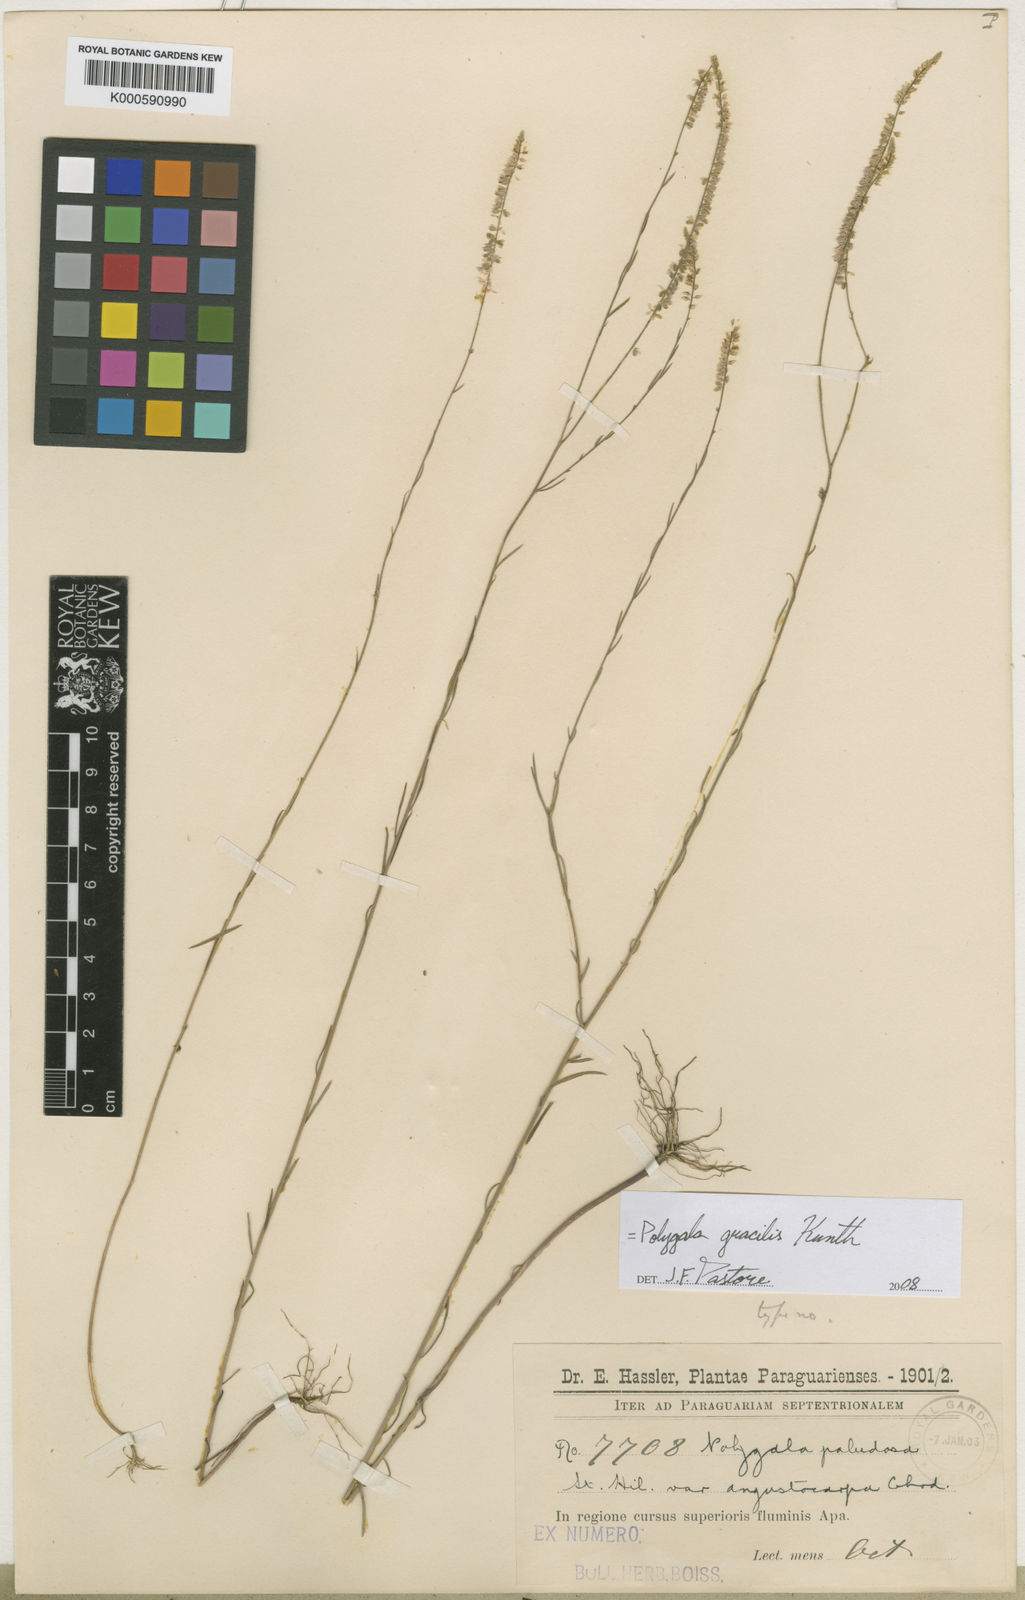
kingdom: Plantae
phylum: Tracheophyta
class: Magnoliopsida
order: Fabales
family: Polygalaceae
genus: Polygala
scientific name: Polygala tenuis
